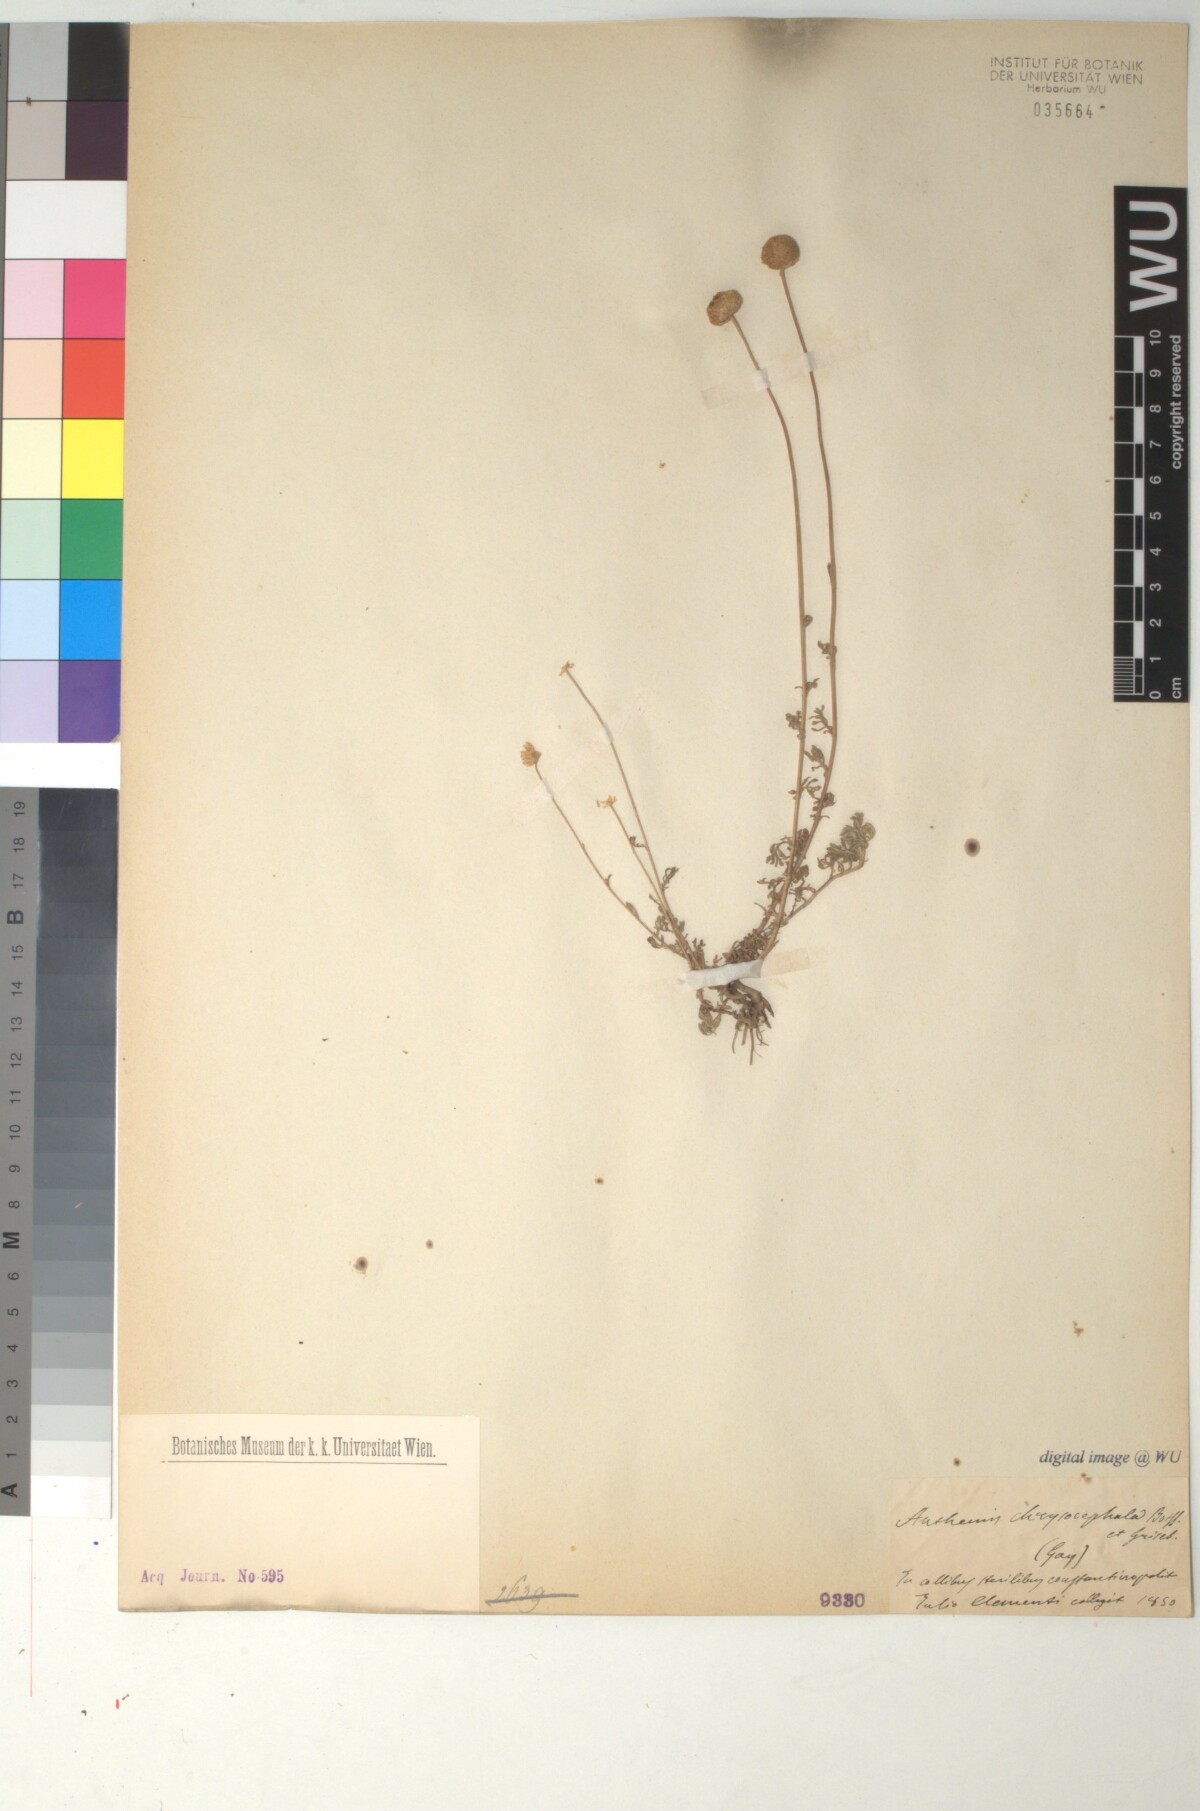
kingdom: Plantae
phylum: Tracheophyta
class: Magnoliopsida
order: Asterales
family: Asteraceae
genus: Anthemis
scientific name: Anthemis alpestris
